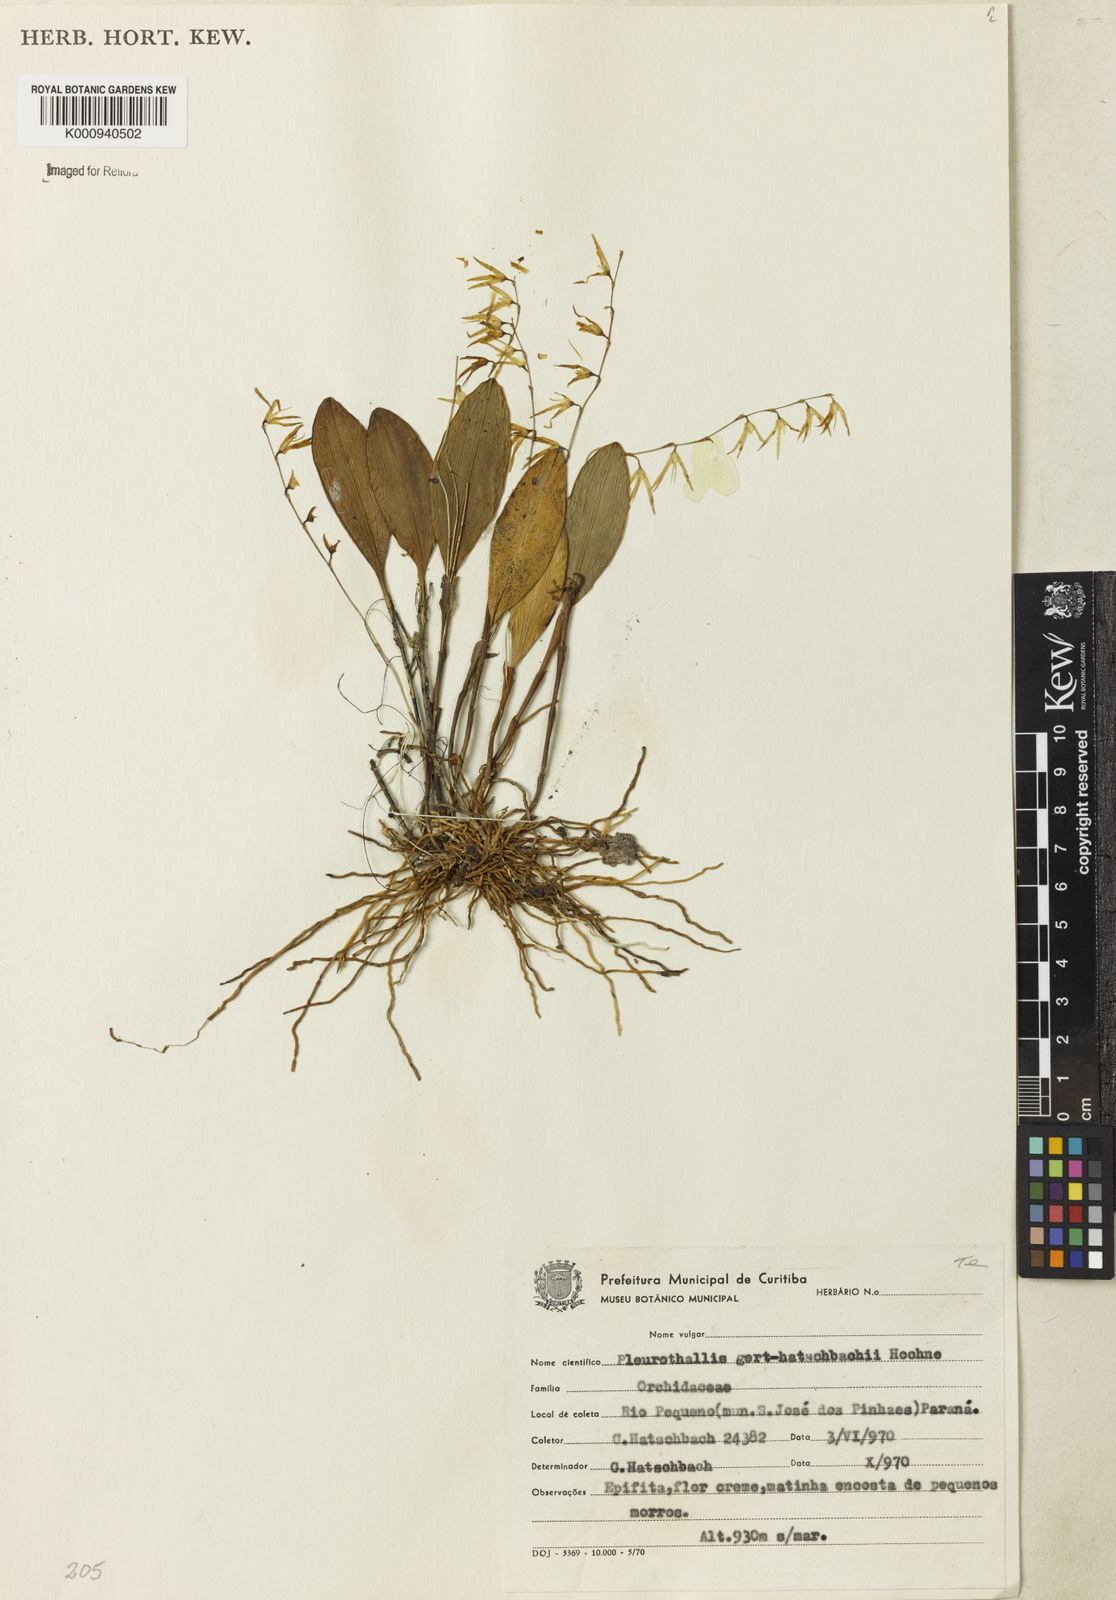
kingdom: Plantae
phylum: Tracheophyta
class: Liliopsida
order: Asparagales
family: Orchidaceae
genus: Anathallis
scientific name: Anathallis gert-hatschbachii
